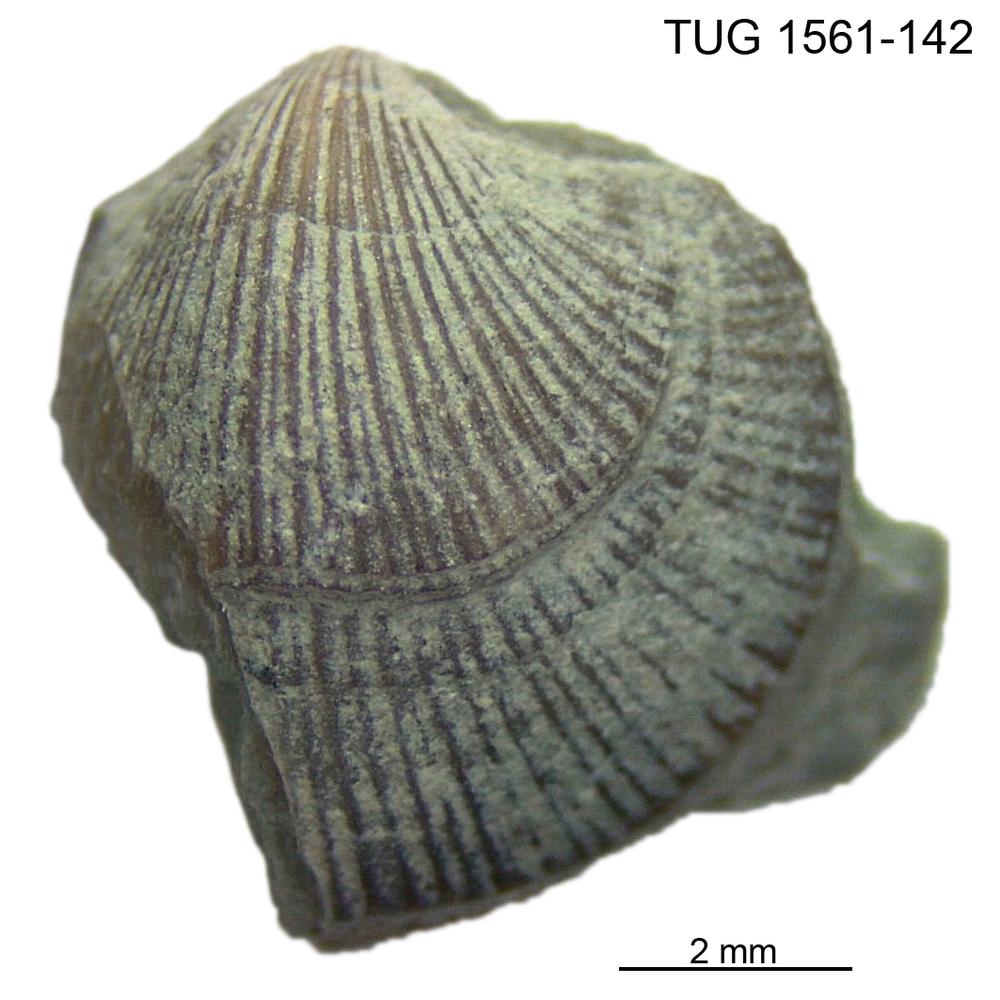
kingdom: Animalia
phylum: Brachiopoda
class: Rhynchonellata
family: Dalmanellidae
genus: Isorthis
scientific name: Isorthis
